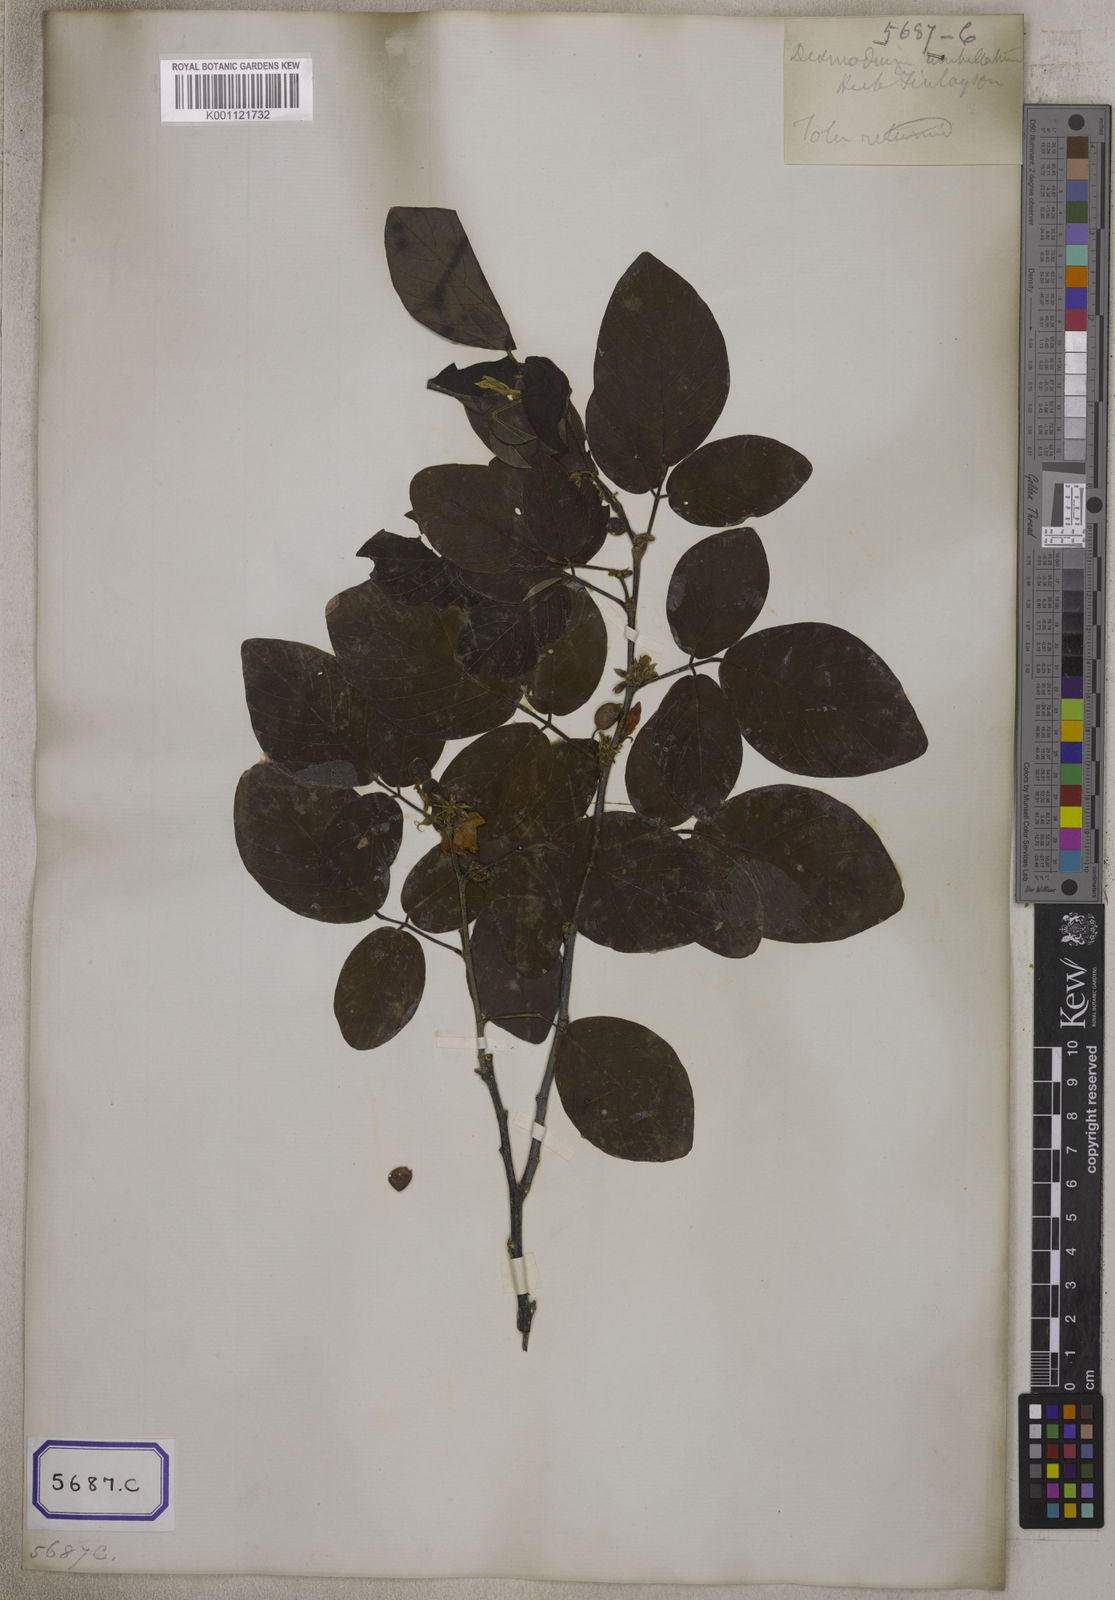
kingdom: Plantae
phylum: Tracheophyta
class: Magnoliopsida
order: Fabales
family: Fabaceae
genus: Dendrolobium
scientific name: Dendrolobium umbellatum
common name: Horsebush
